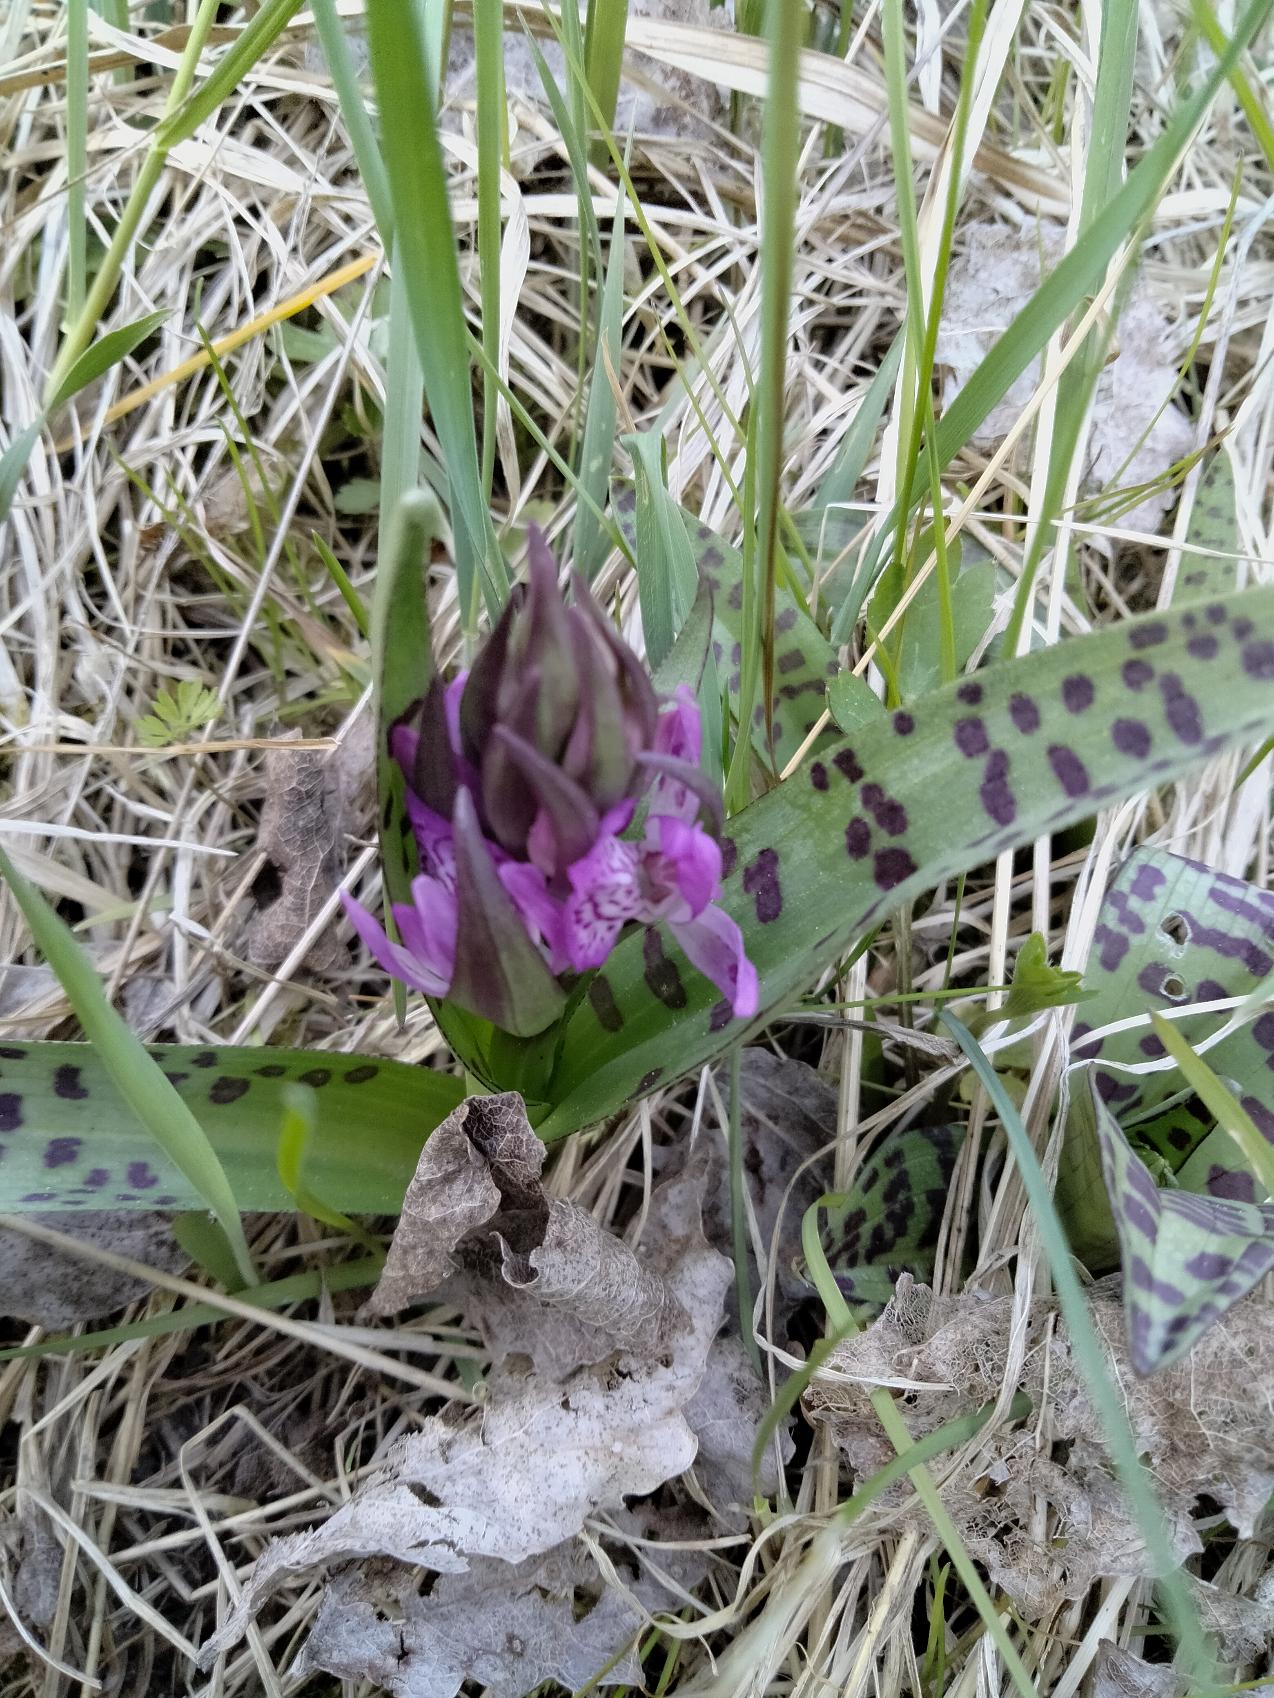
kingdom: Plantae
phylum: Tracheophyta
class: Liliopsida
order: Asparagales
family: Orchidaceae
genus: Dactylorhiza
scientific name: Dactylorhiza majalis
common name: Maj-gøgeurt
